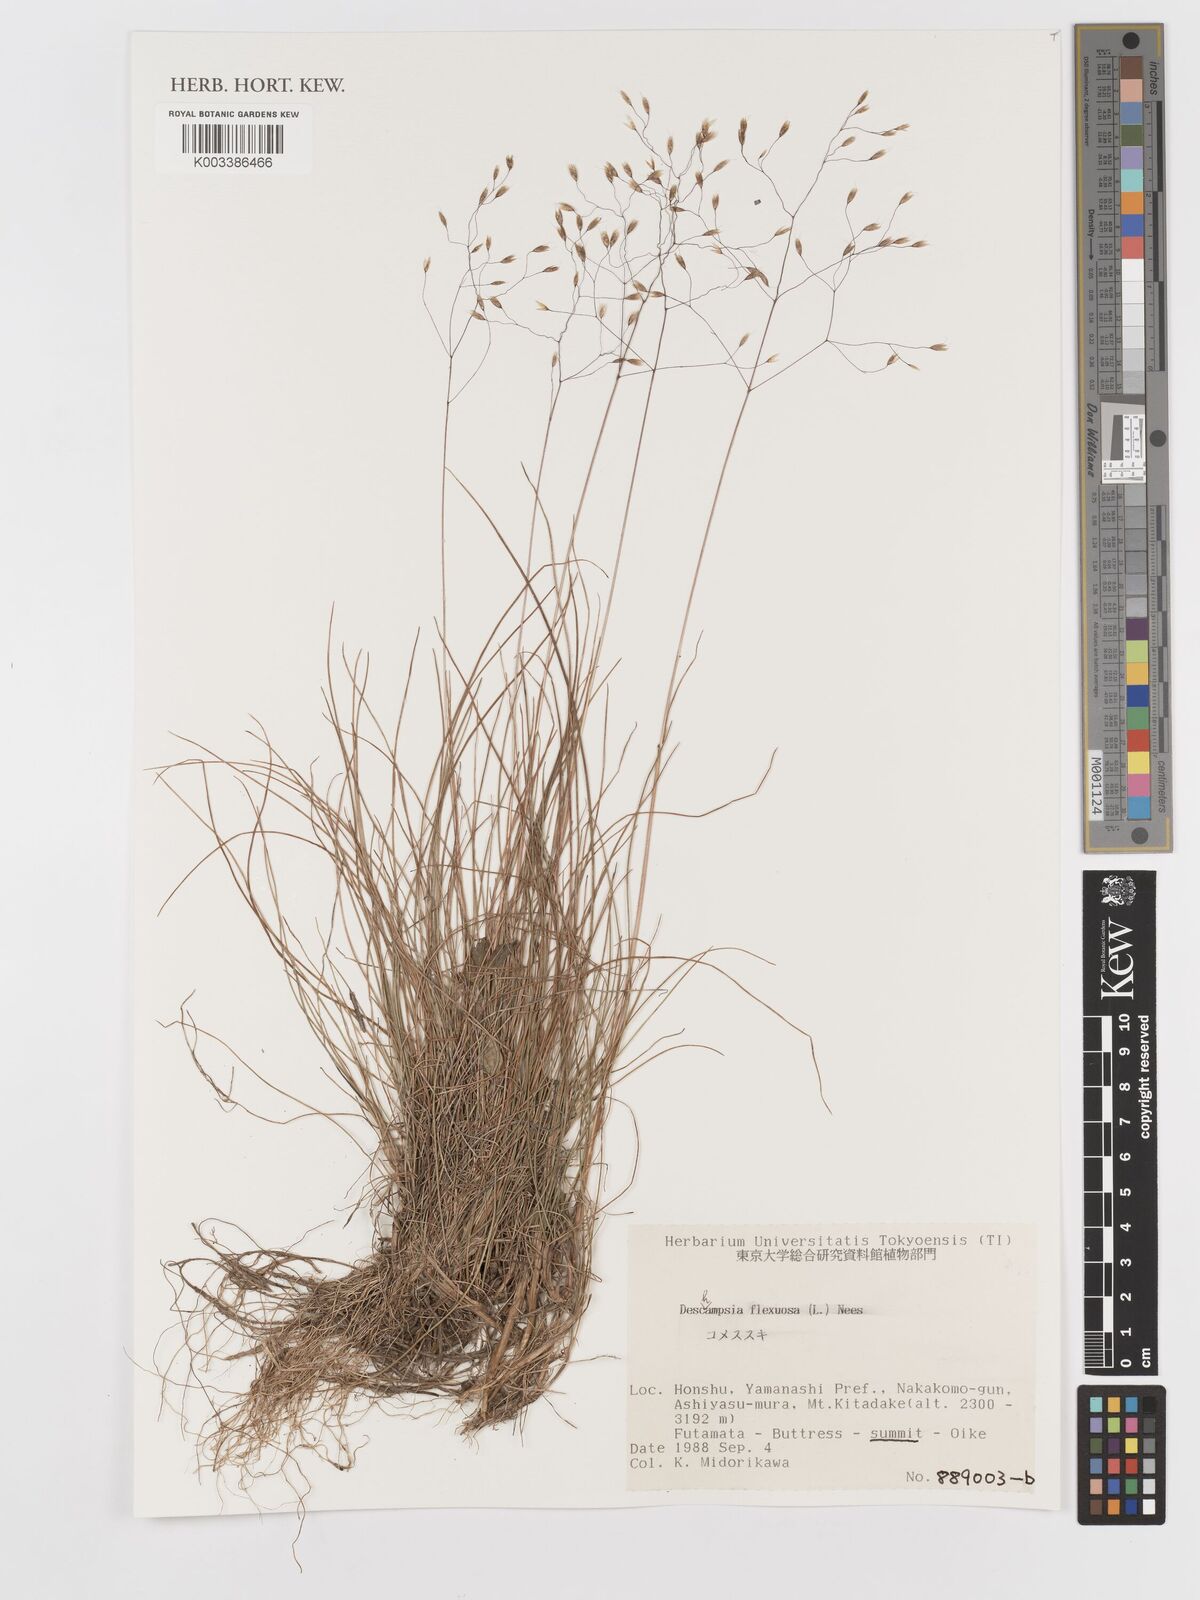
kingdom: Plantae
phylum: Tracheophyta
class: Liliopsida
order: Poales
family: Poaceae
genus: Avenella
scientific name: Avenella flexuosa
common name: Wavy hairgrass
